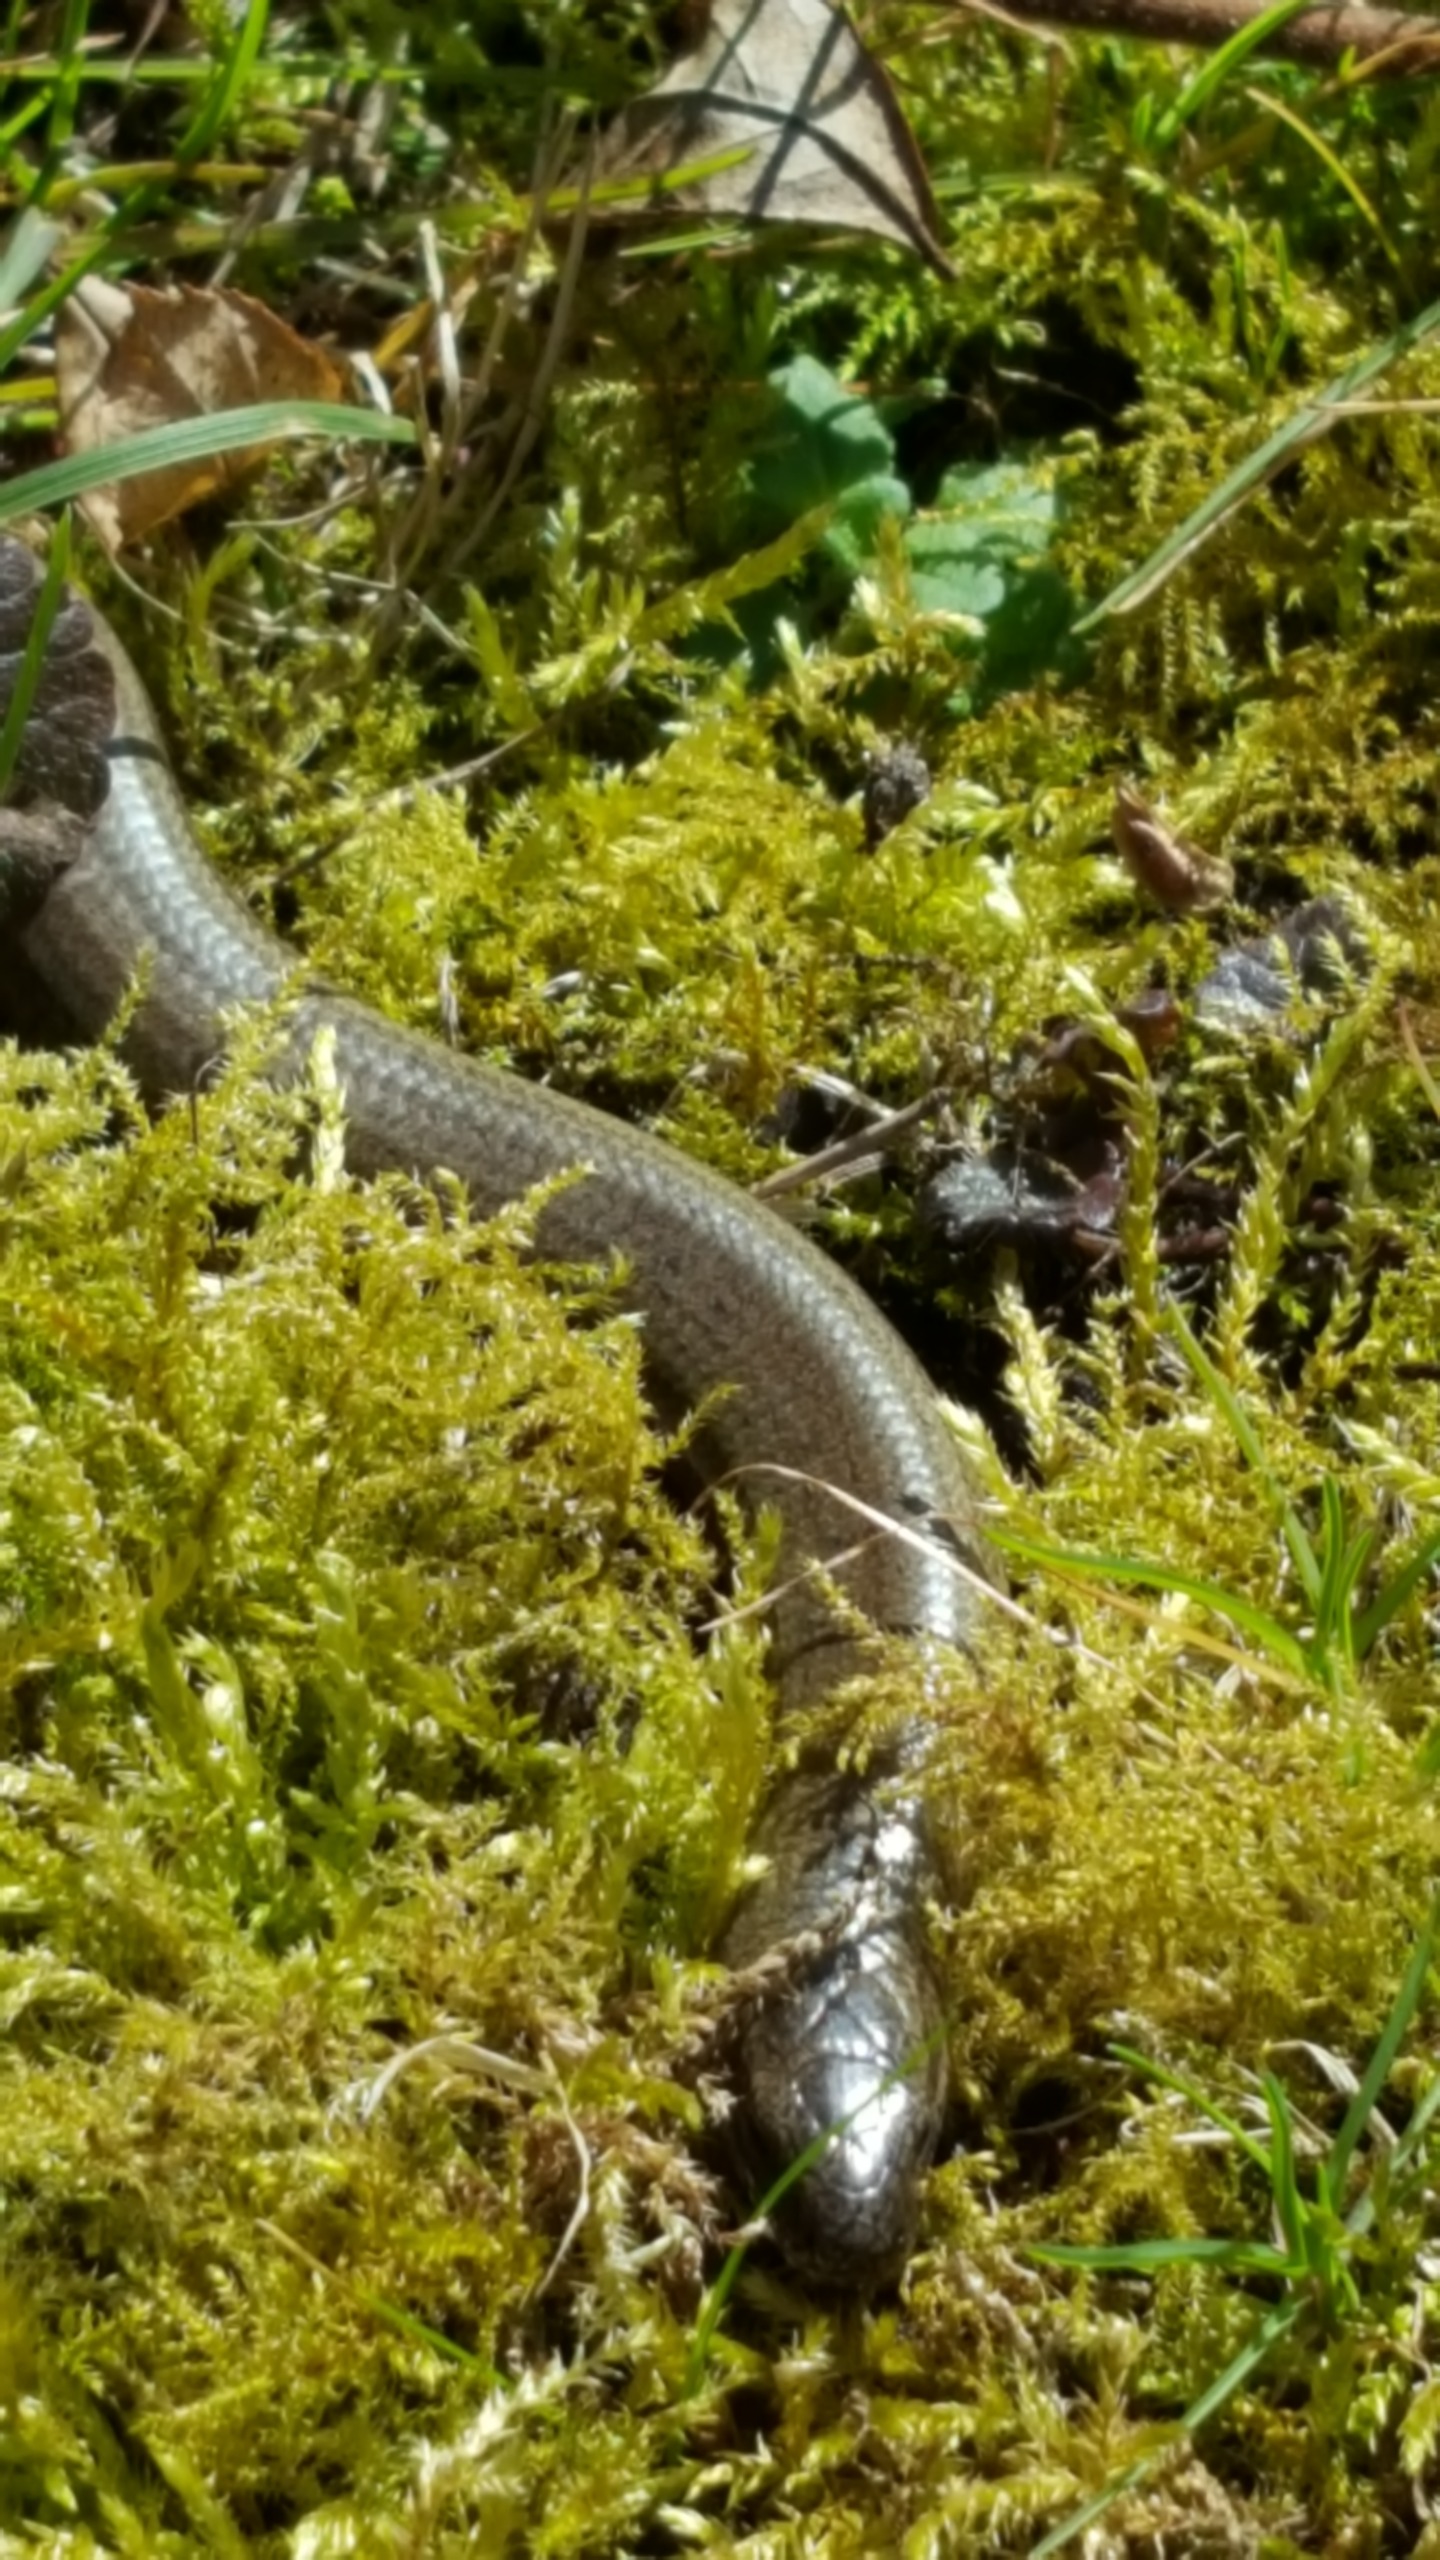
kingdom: Animalia
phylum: Chordata
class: Squamata
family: Anguidae
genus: Anguis
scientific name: Anguis fragilis
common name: Stålorm
